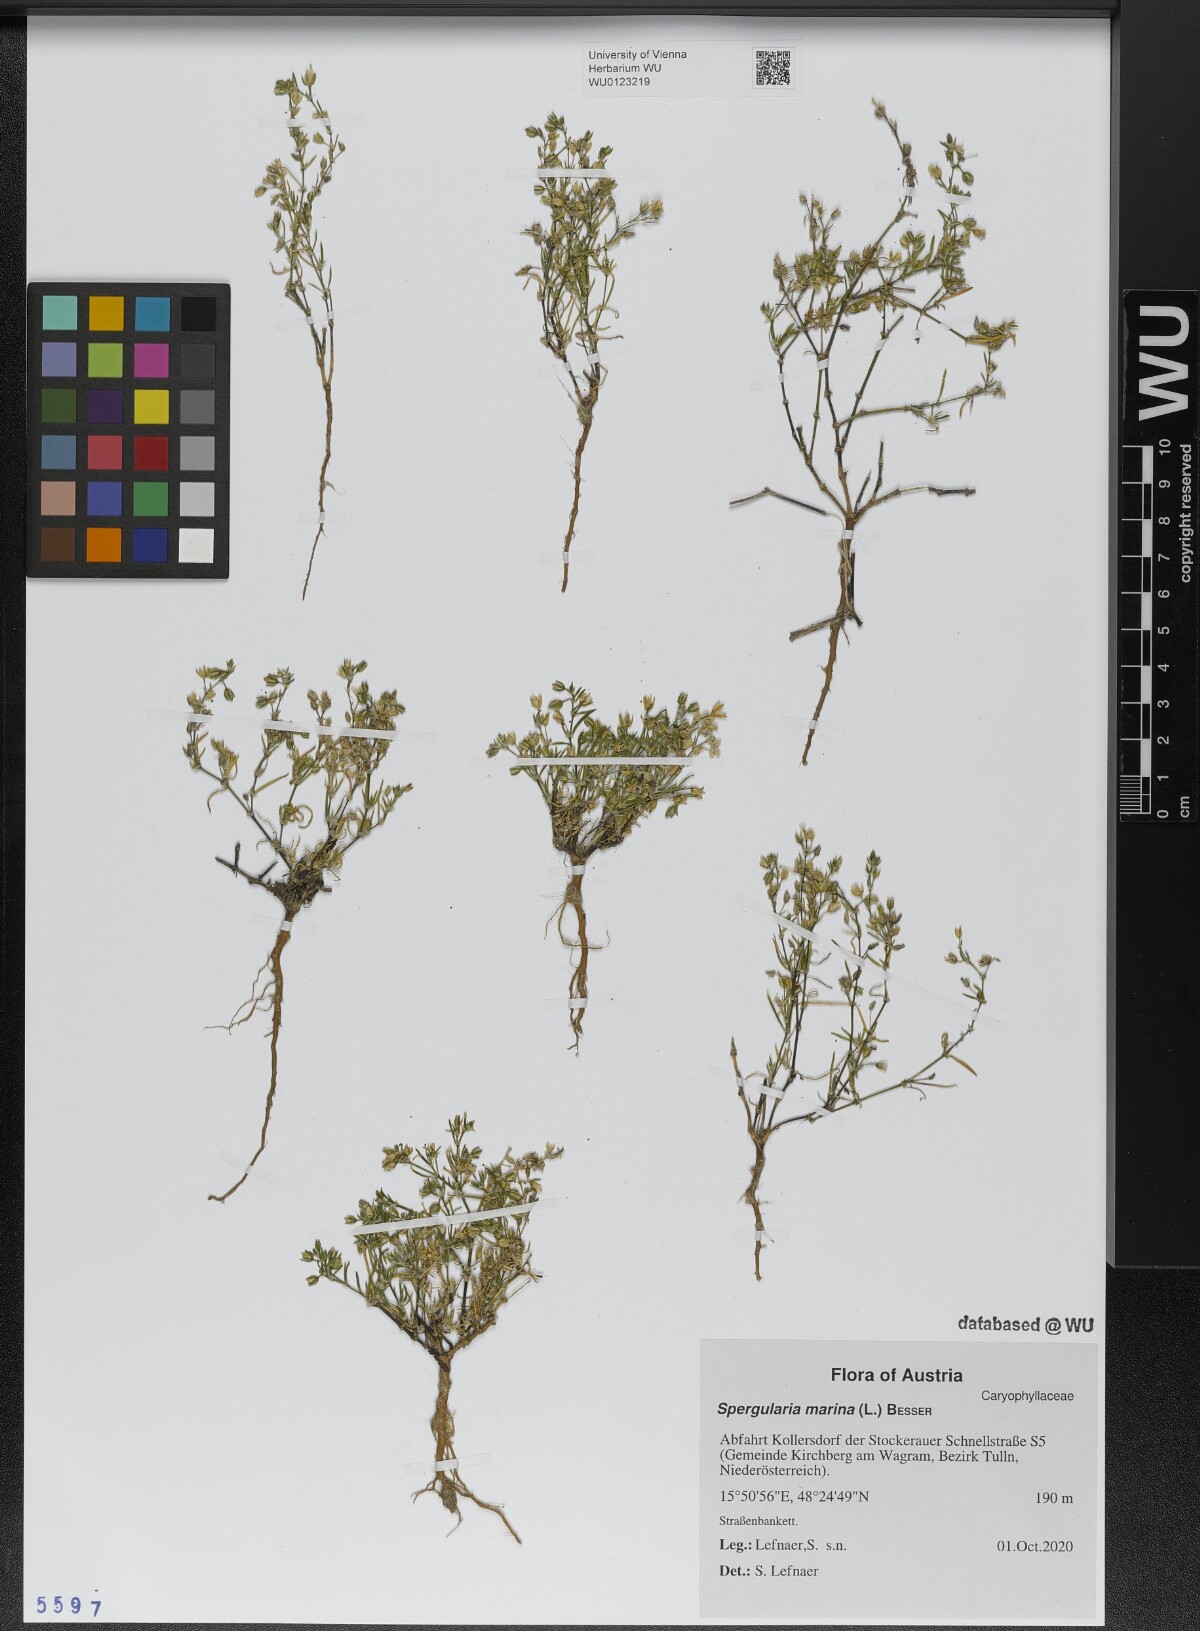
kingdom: Plantae
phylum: Tracheophyta
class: Magnoliopsida
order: Caryophyllales
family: Caryophyllaceae
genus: Spergularia
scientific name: Spergularia marina
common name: Lesser sea-spurrey
